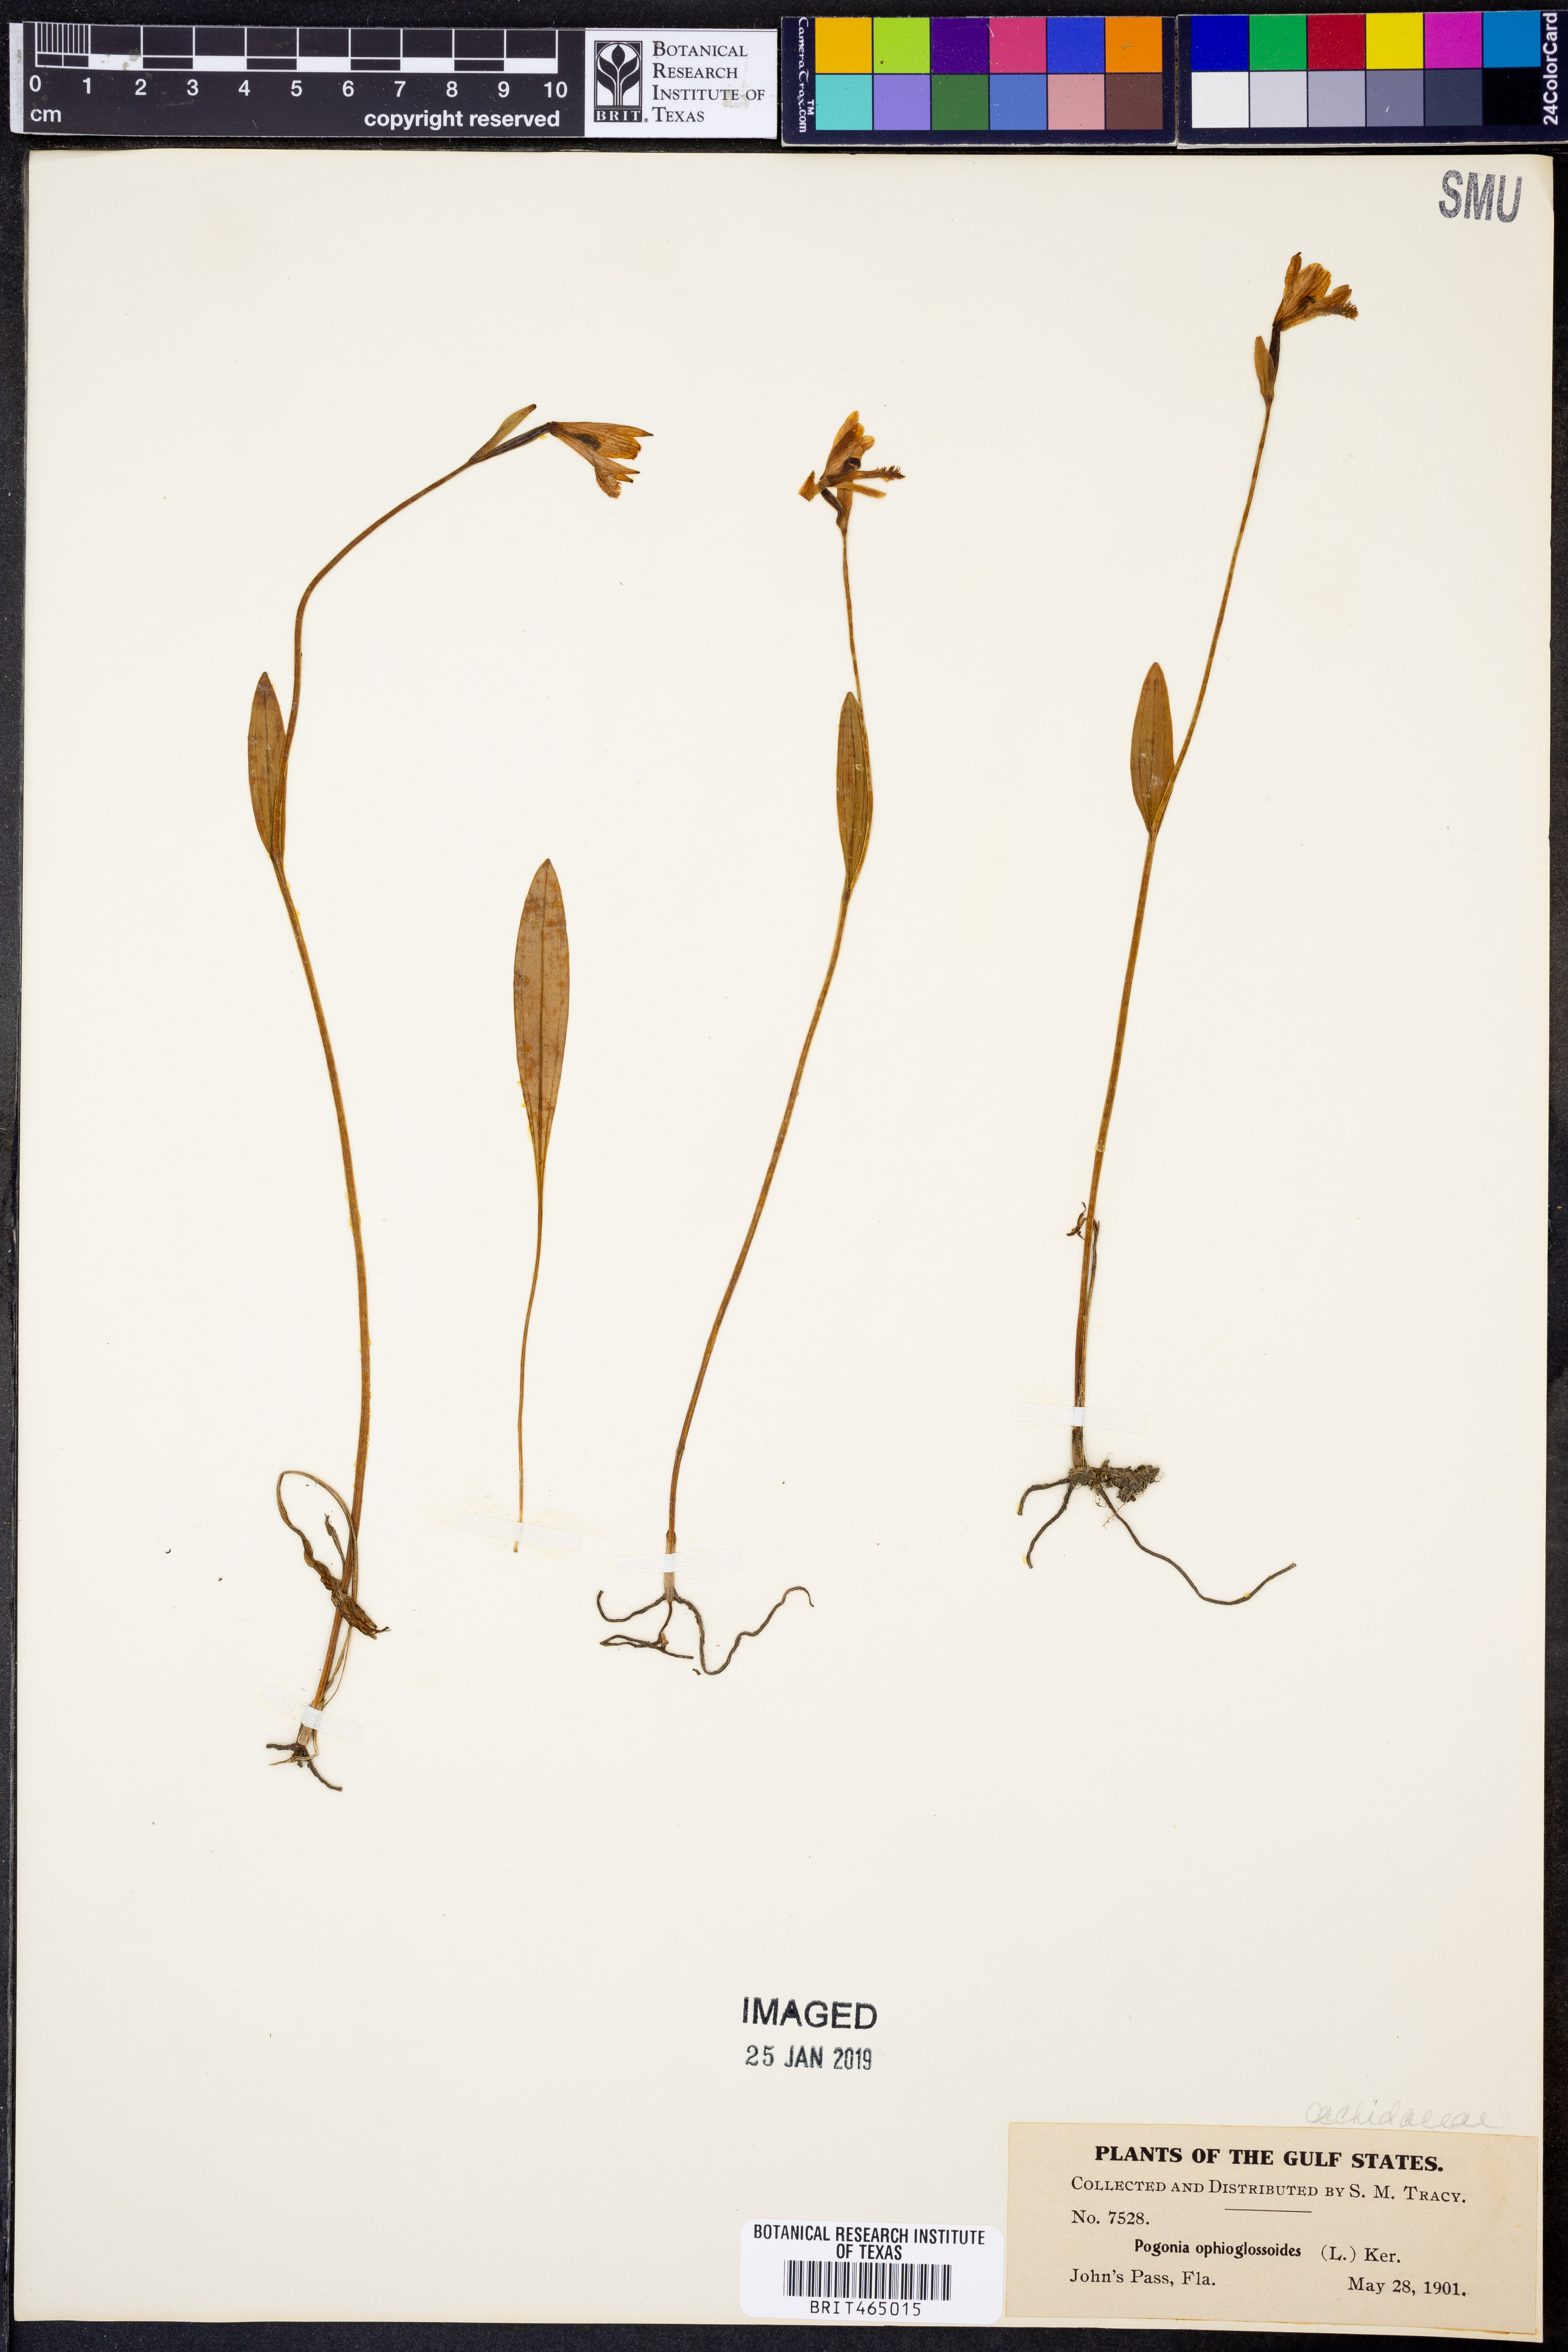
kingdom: Plantae
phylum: Tracheophyta
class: Liliopsida
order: Asparagales
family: Orchidaceae
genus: Pogonia
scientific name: Pogonia ophioglossoides
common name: Rose pogonia
